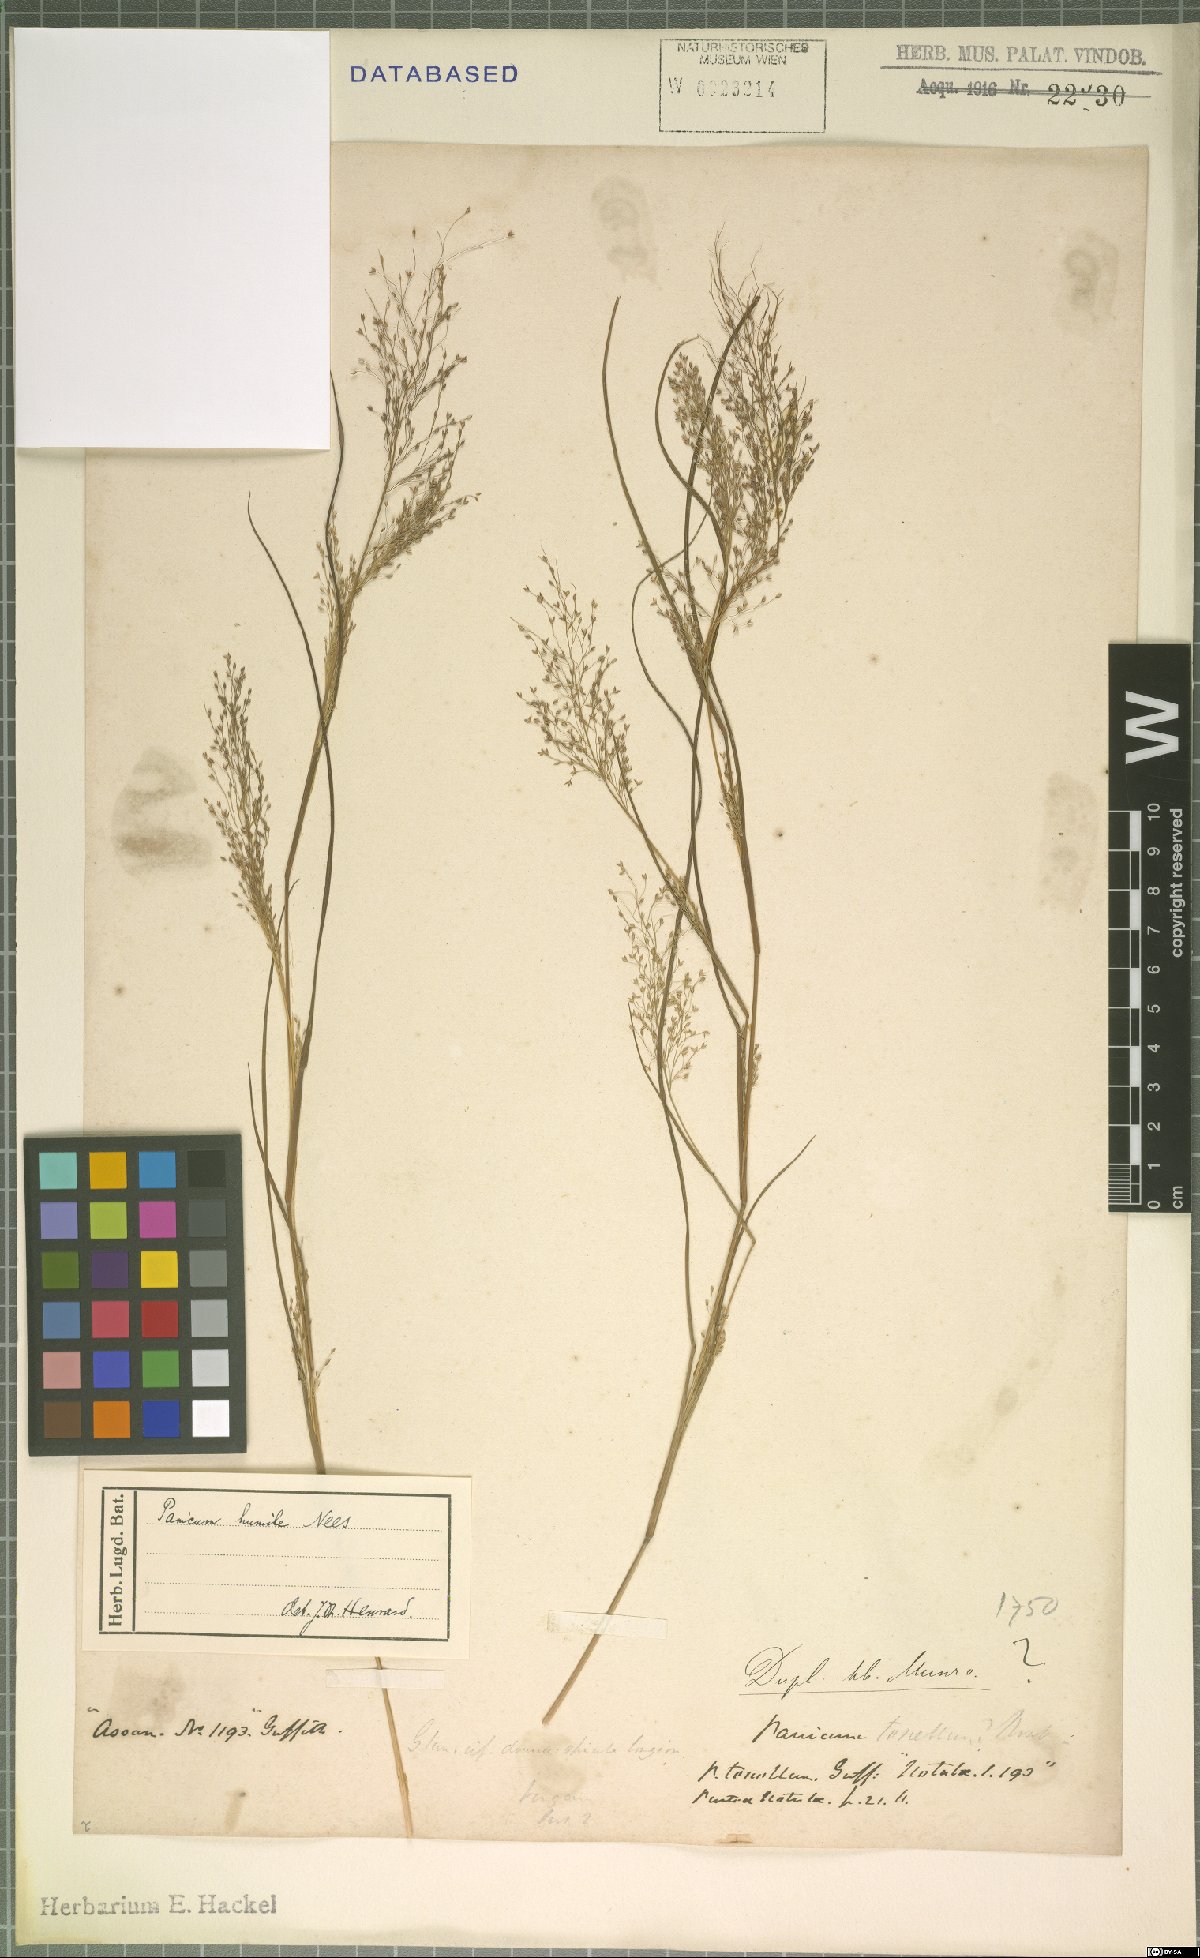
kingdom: Plantae
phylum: Tracheophyta
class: Liliopsida
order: Poales
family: Poaceae
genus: Panicum
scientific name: Panicum humile
